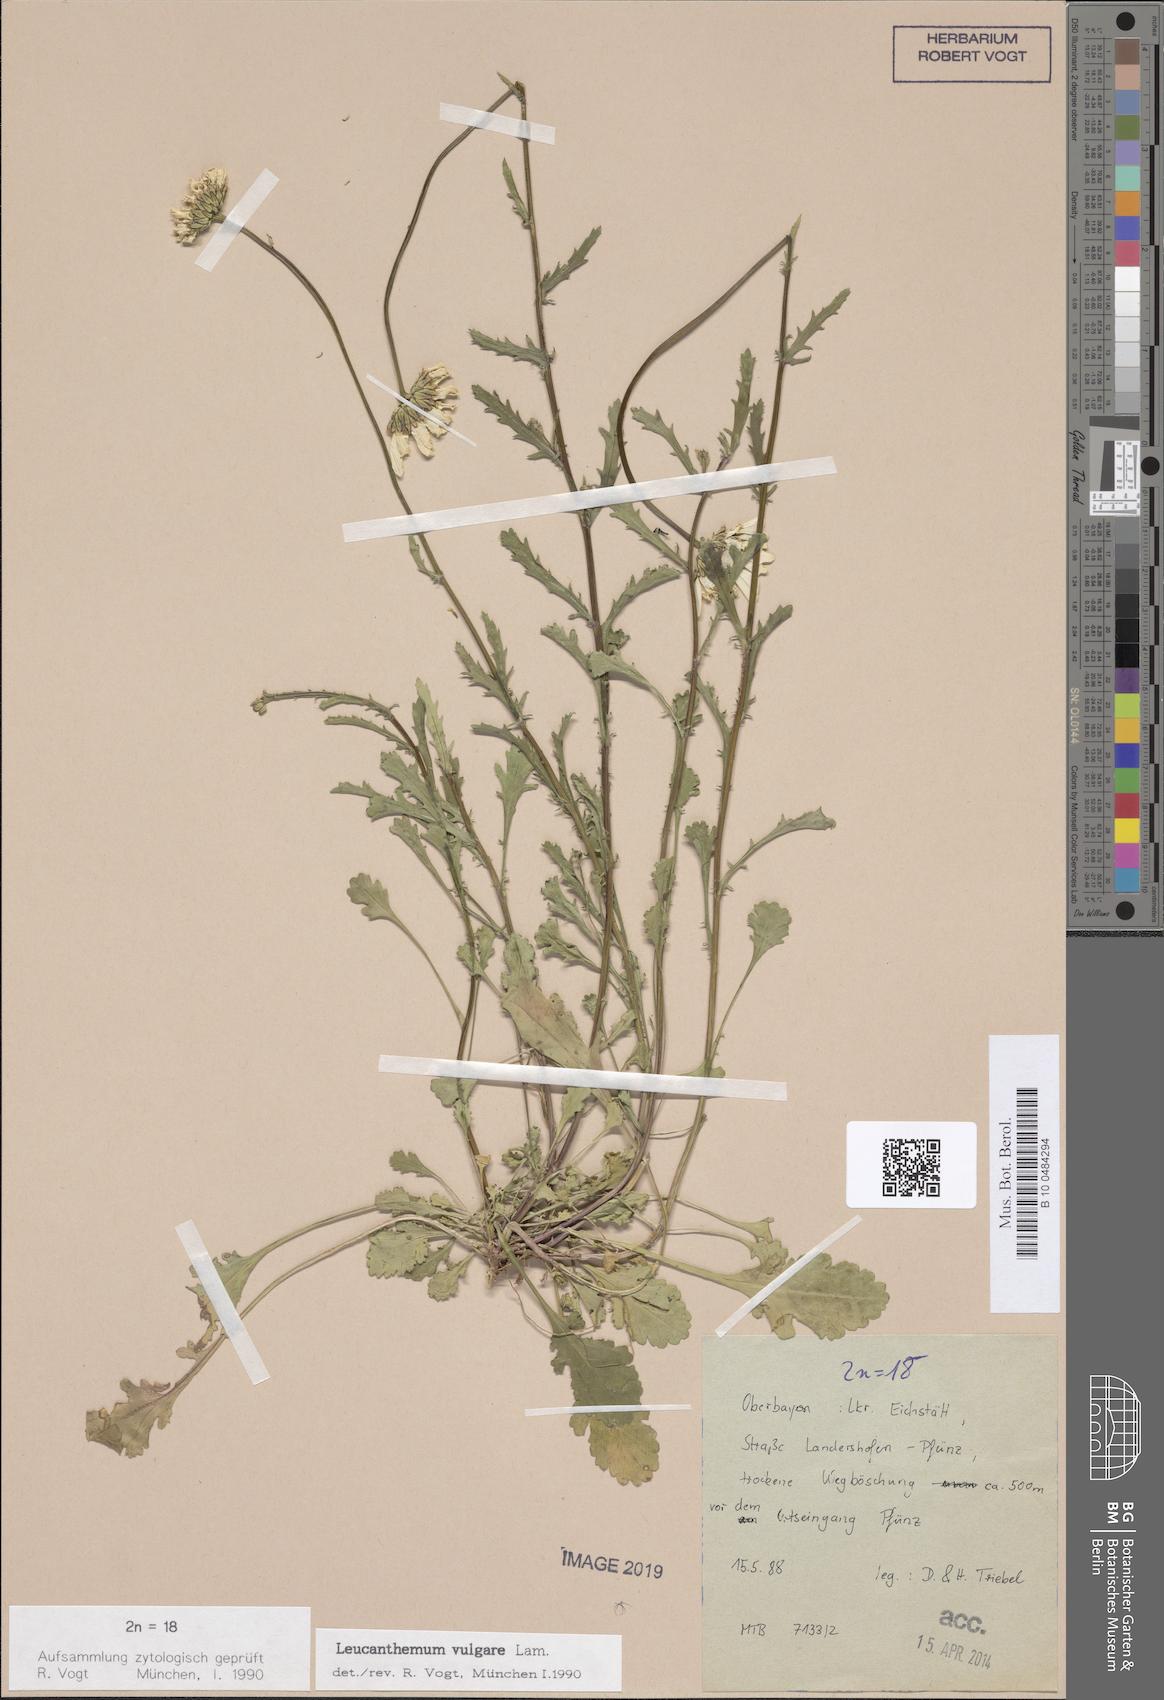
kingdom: Plantae
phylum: Tracheophyta
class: Magnoliopsida
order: Asterales
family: Asteraceae
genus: Leucanthemum
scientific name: Leucanthemum vulgare
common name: Oxeye daisy
